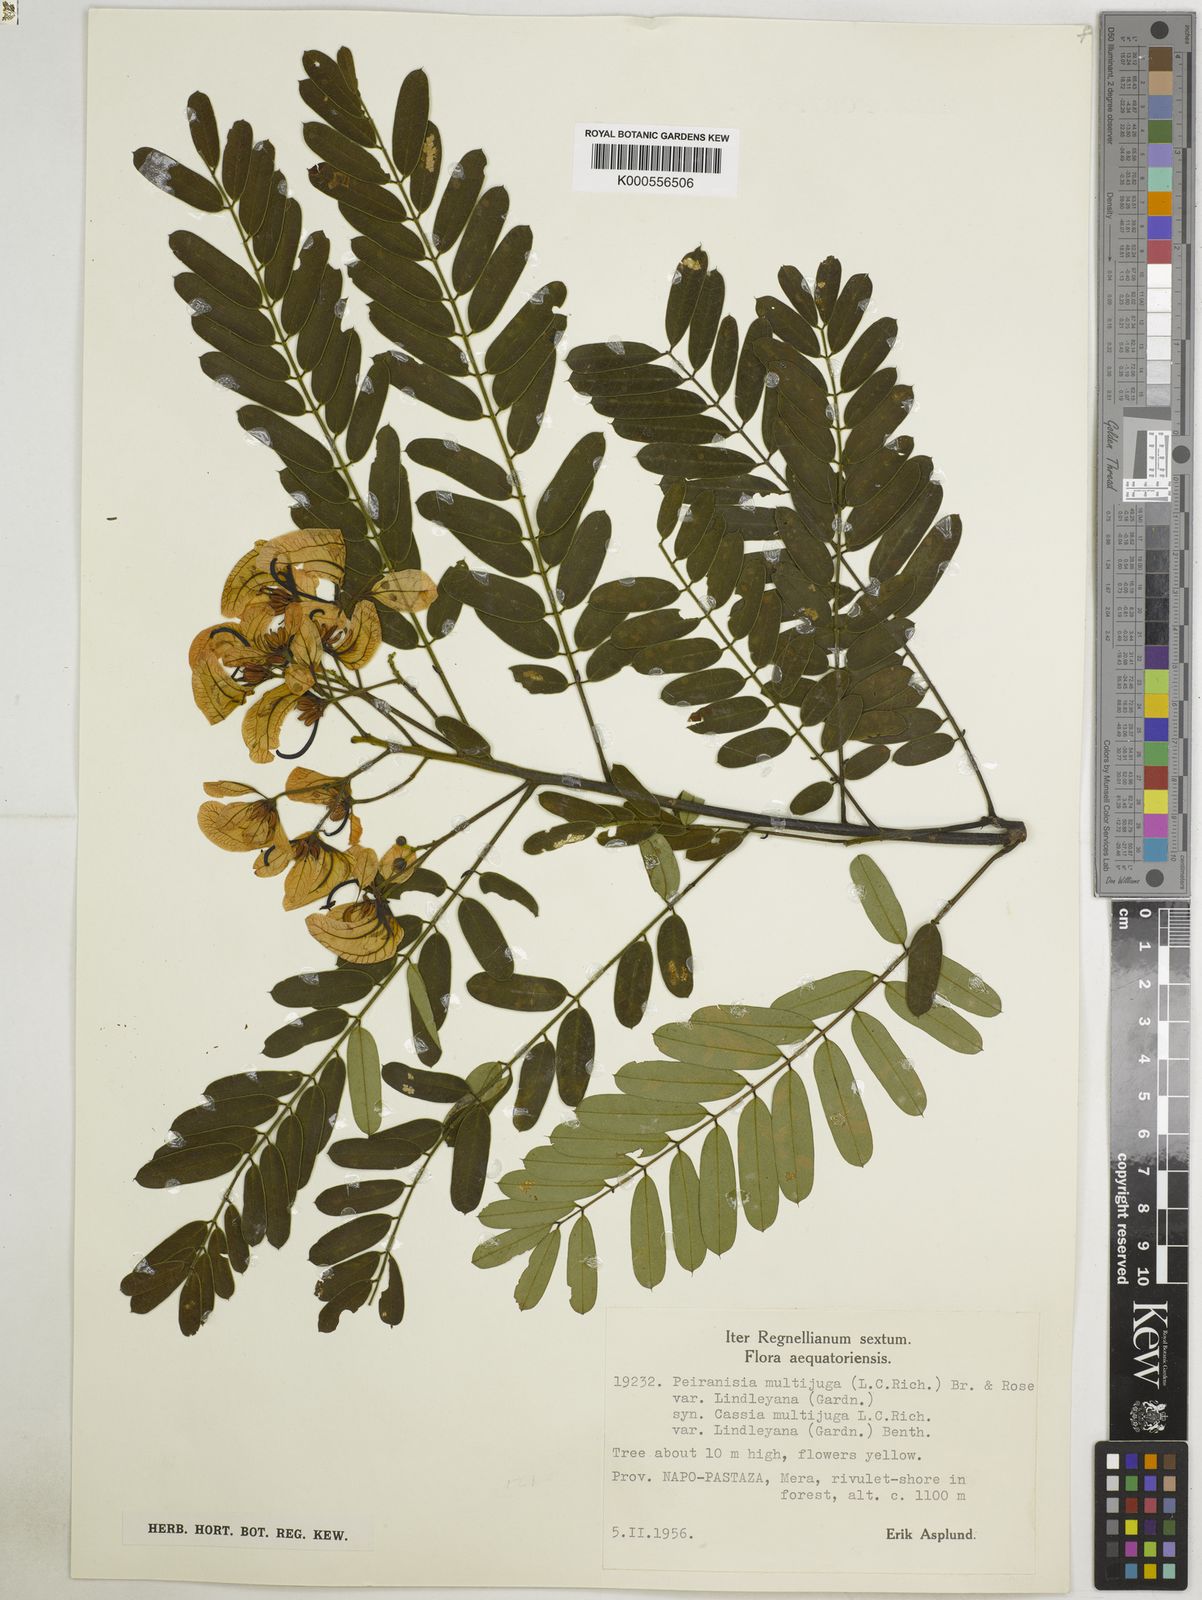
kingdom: Plantae
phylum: Tracheophyta
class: Magnoliopsida
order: Fabales
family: Fabaceae
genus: Senna
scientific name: Senna multijuga
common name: False sicklepod
